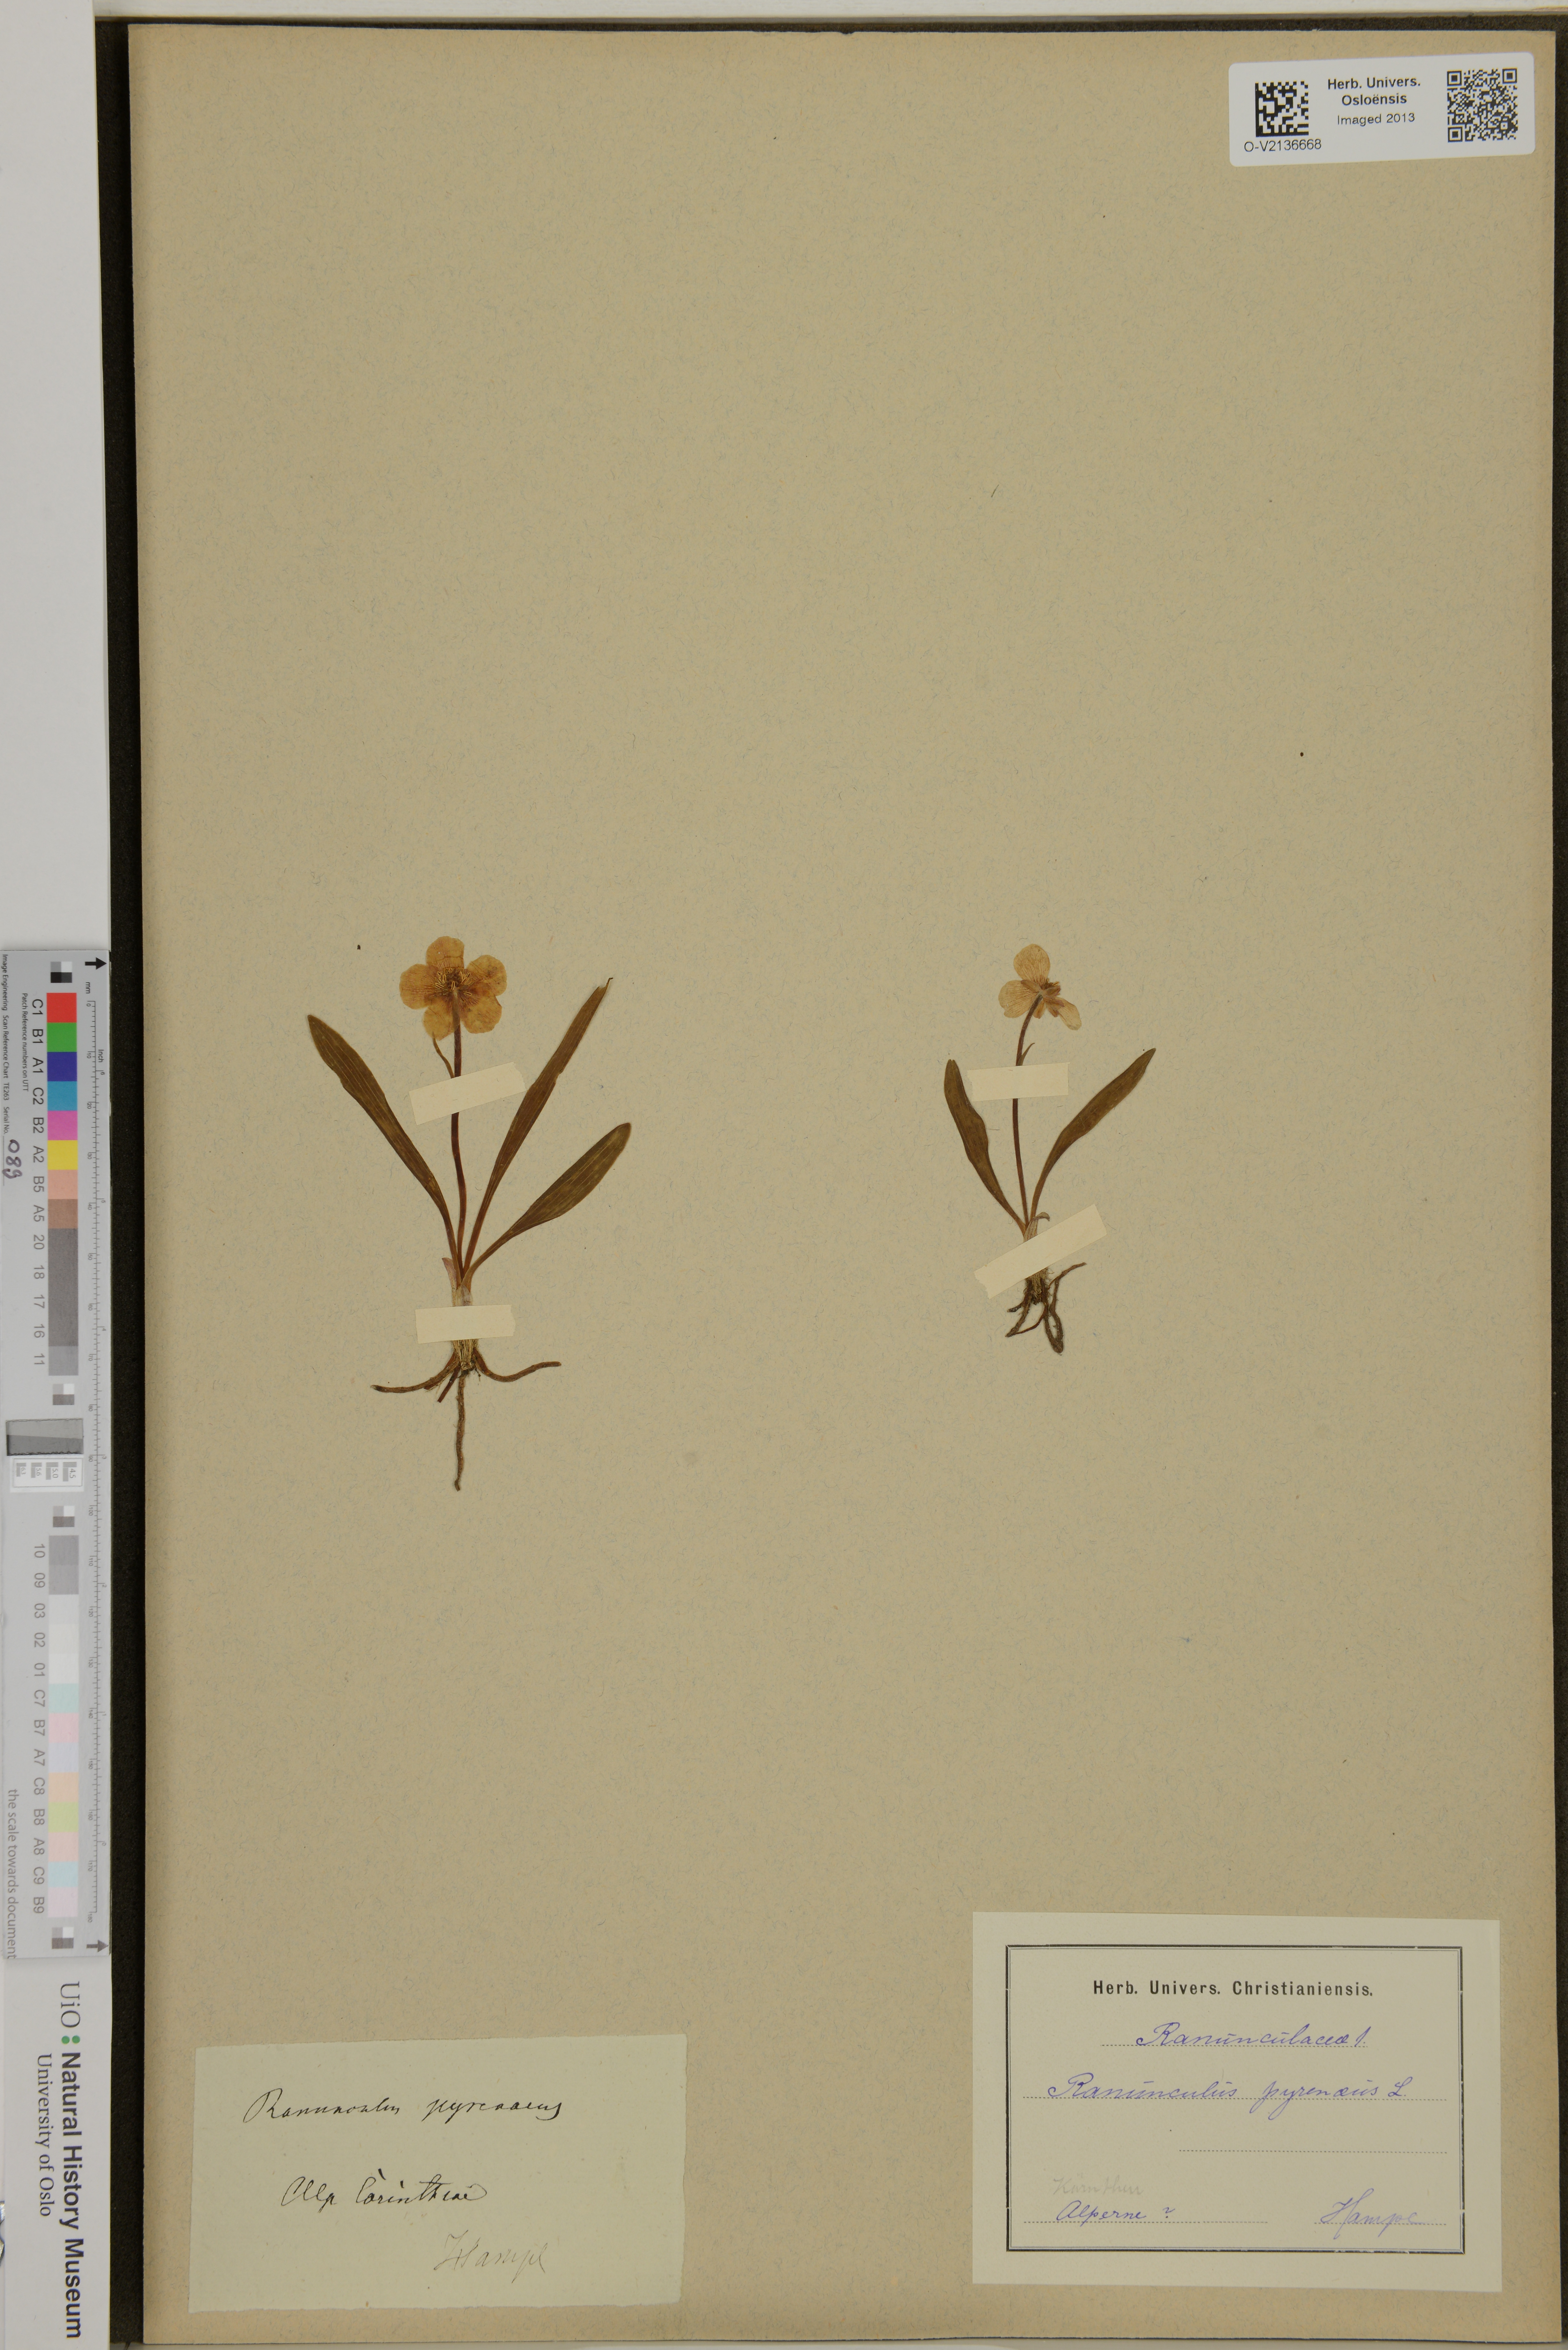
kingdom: Plantae
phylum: Tracheophyta
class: Magnoliopsida
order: Ranunculales
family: Ranunculaceae
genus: Ranunculus
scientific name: Ranunculus pyrenaeus
